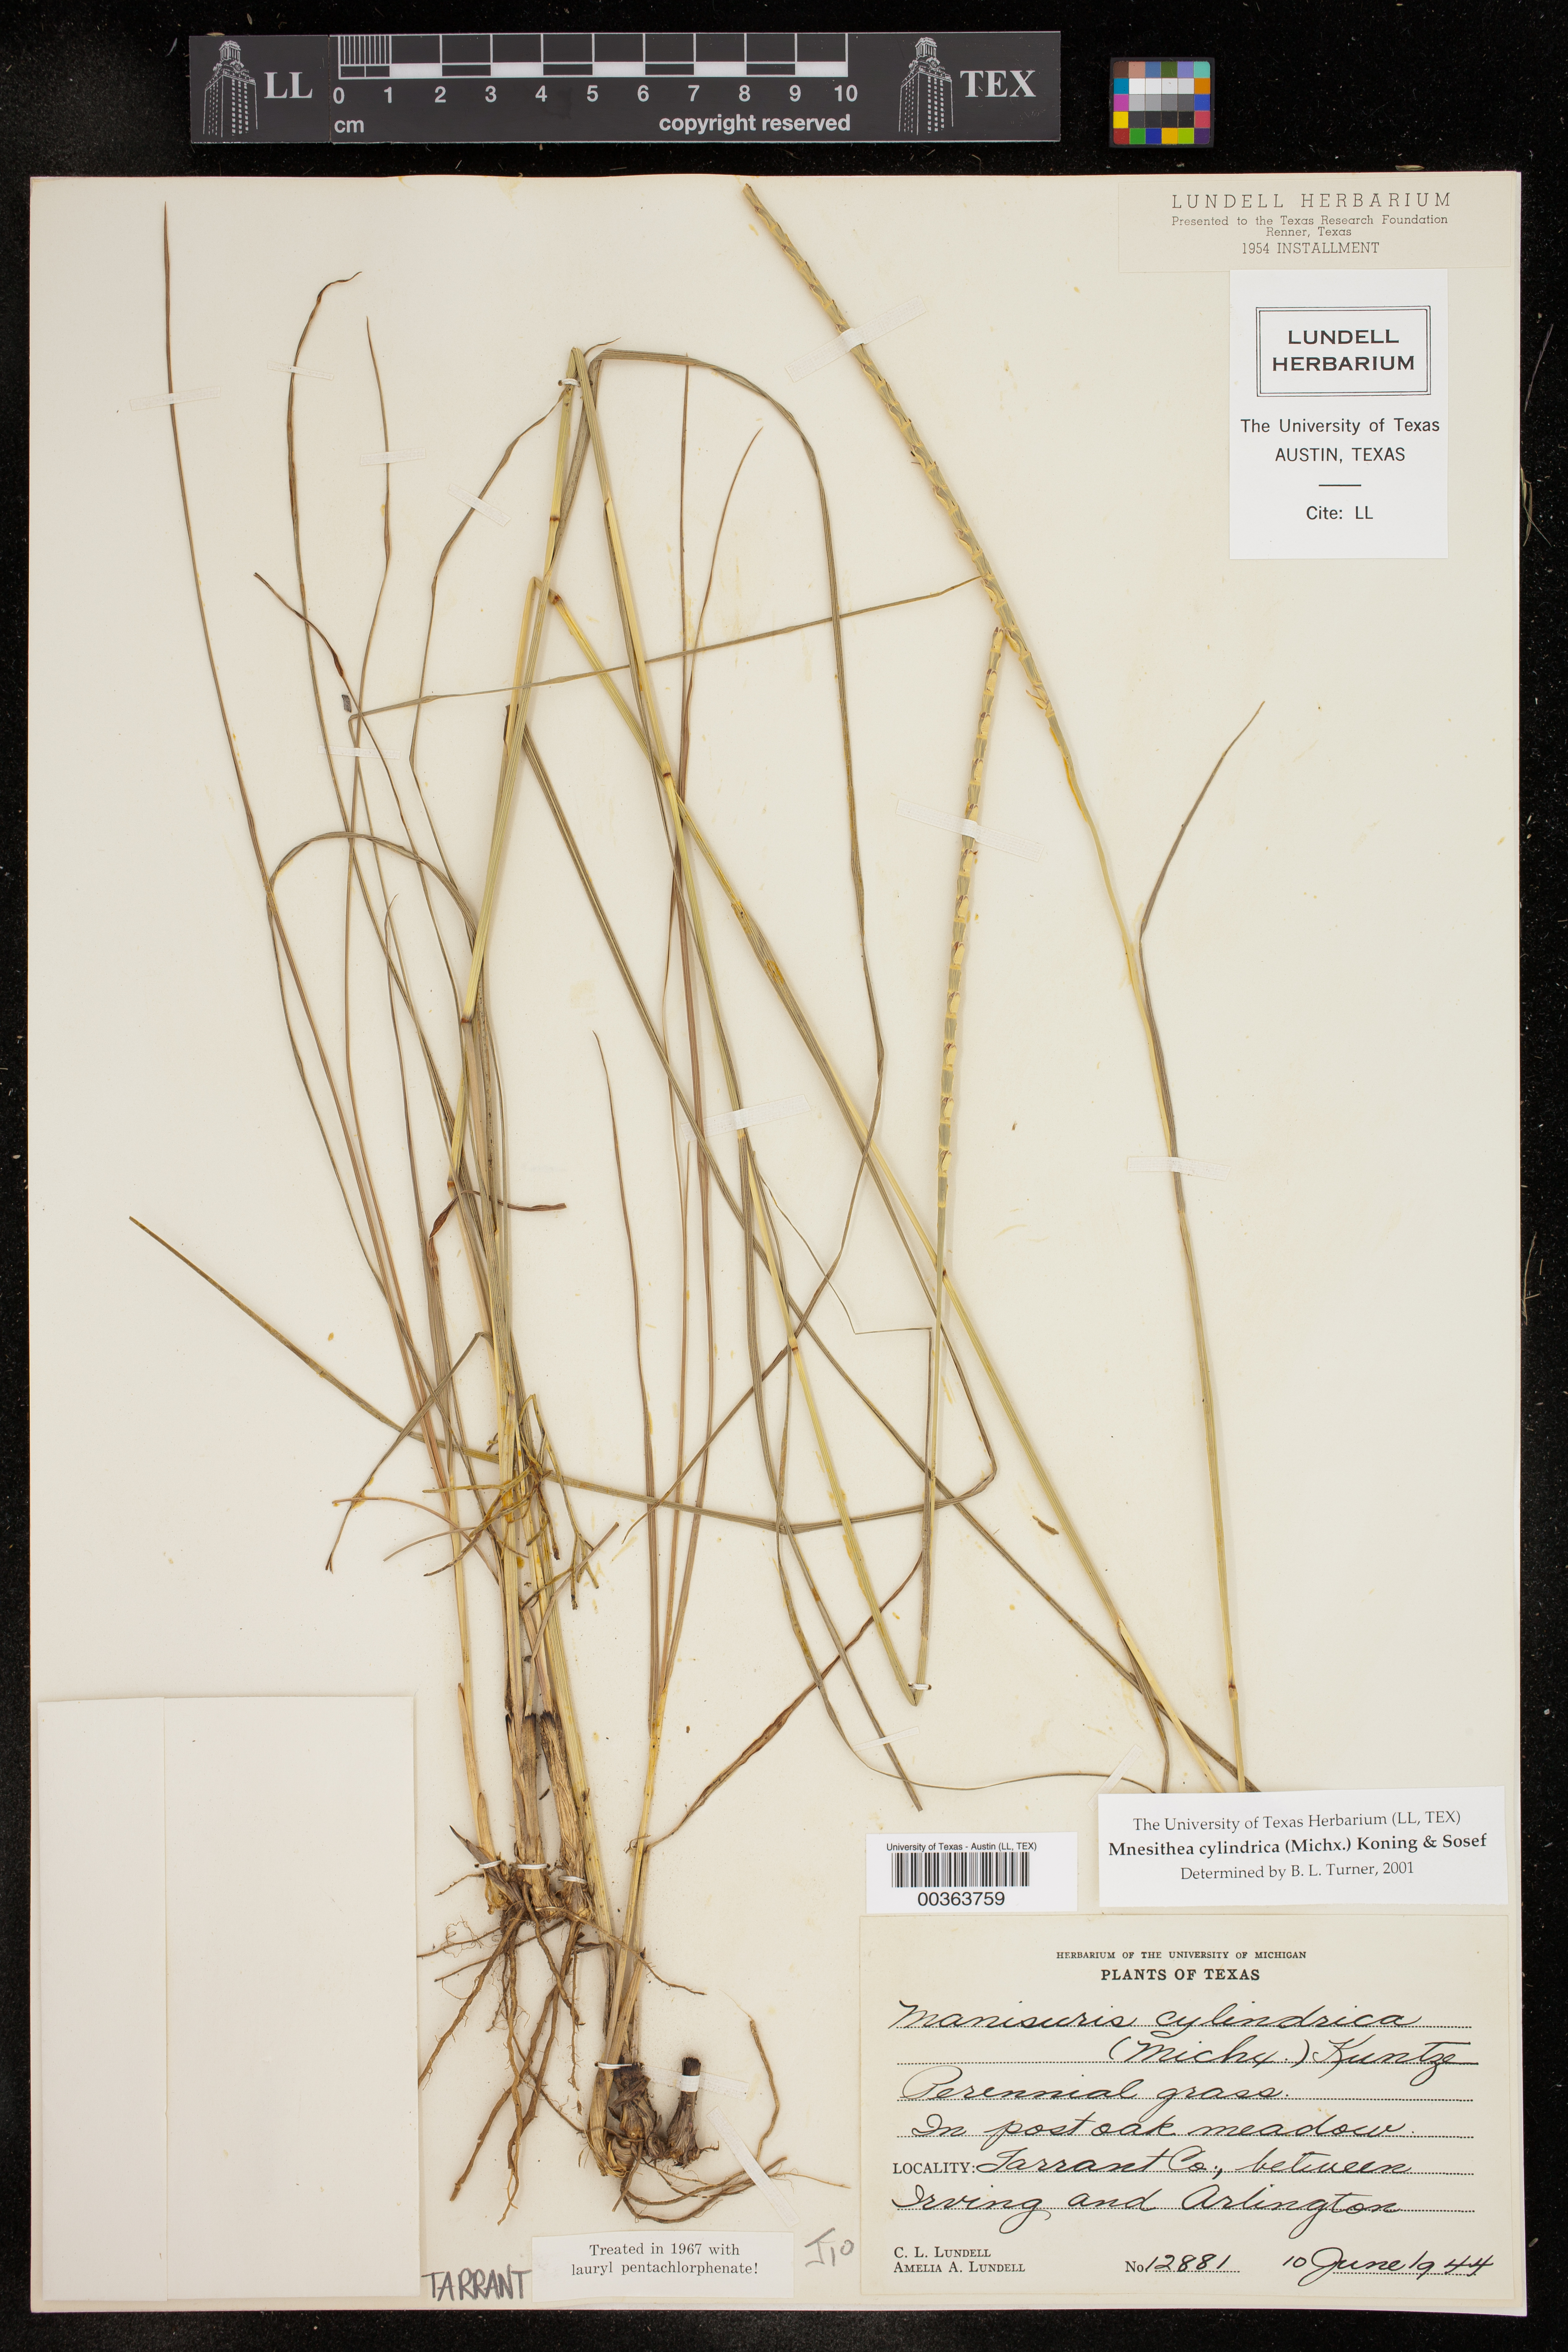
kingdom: Plantae
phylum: Tracheophyta
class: Liliopsida
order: Poales
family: Poaceae
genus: Rottboellia
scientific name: Rottboellia campestris
